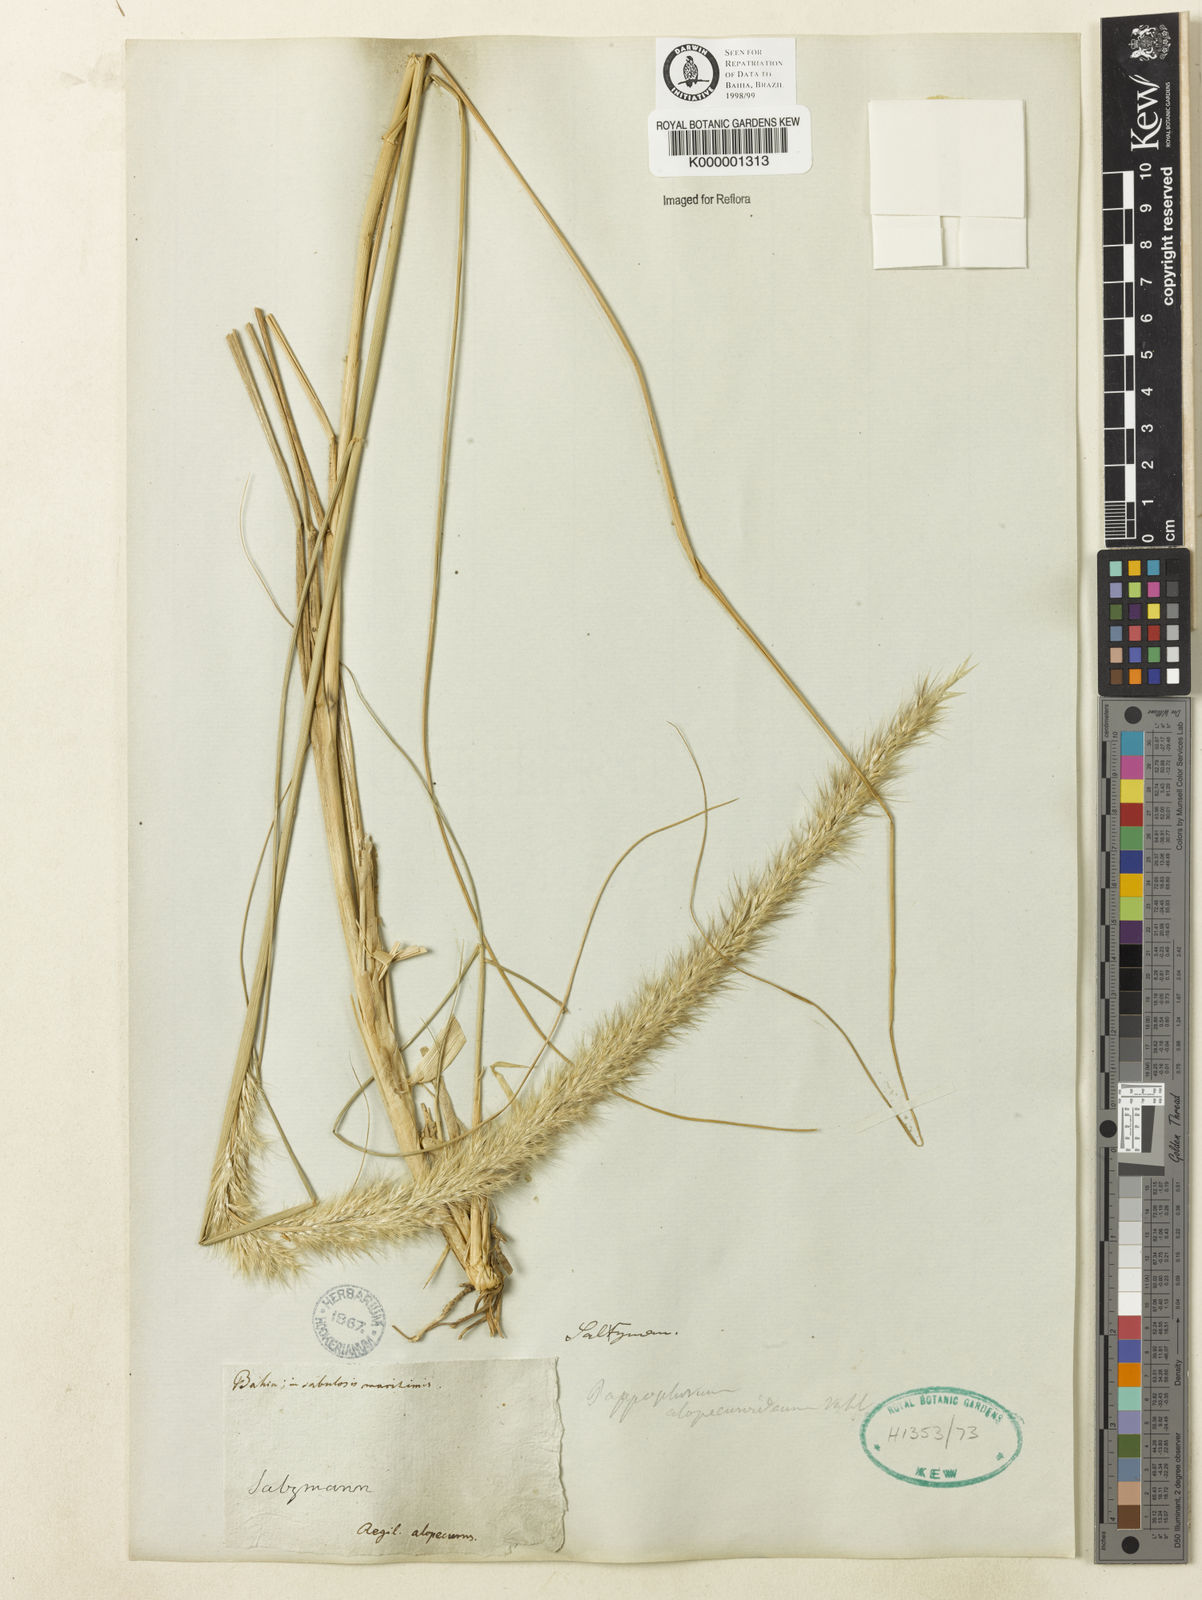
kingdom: Plantae
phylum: Tracheophyta
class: Liliopsida
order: Poales
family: Poaceae
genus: Pappophorum
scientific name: Pappophorum krapovickasii
